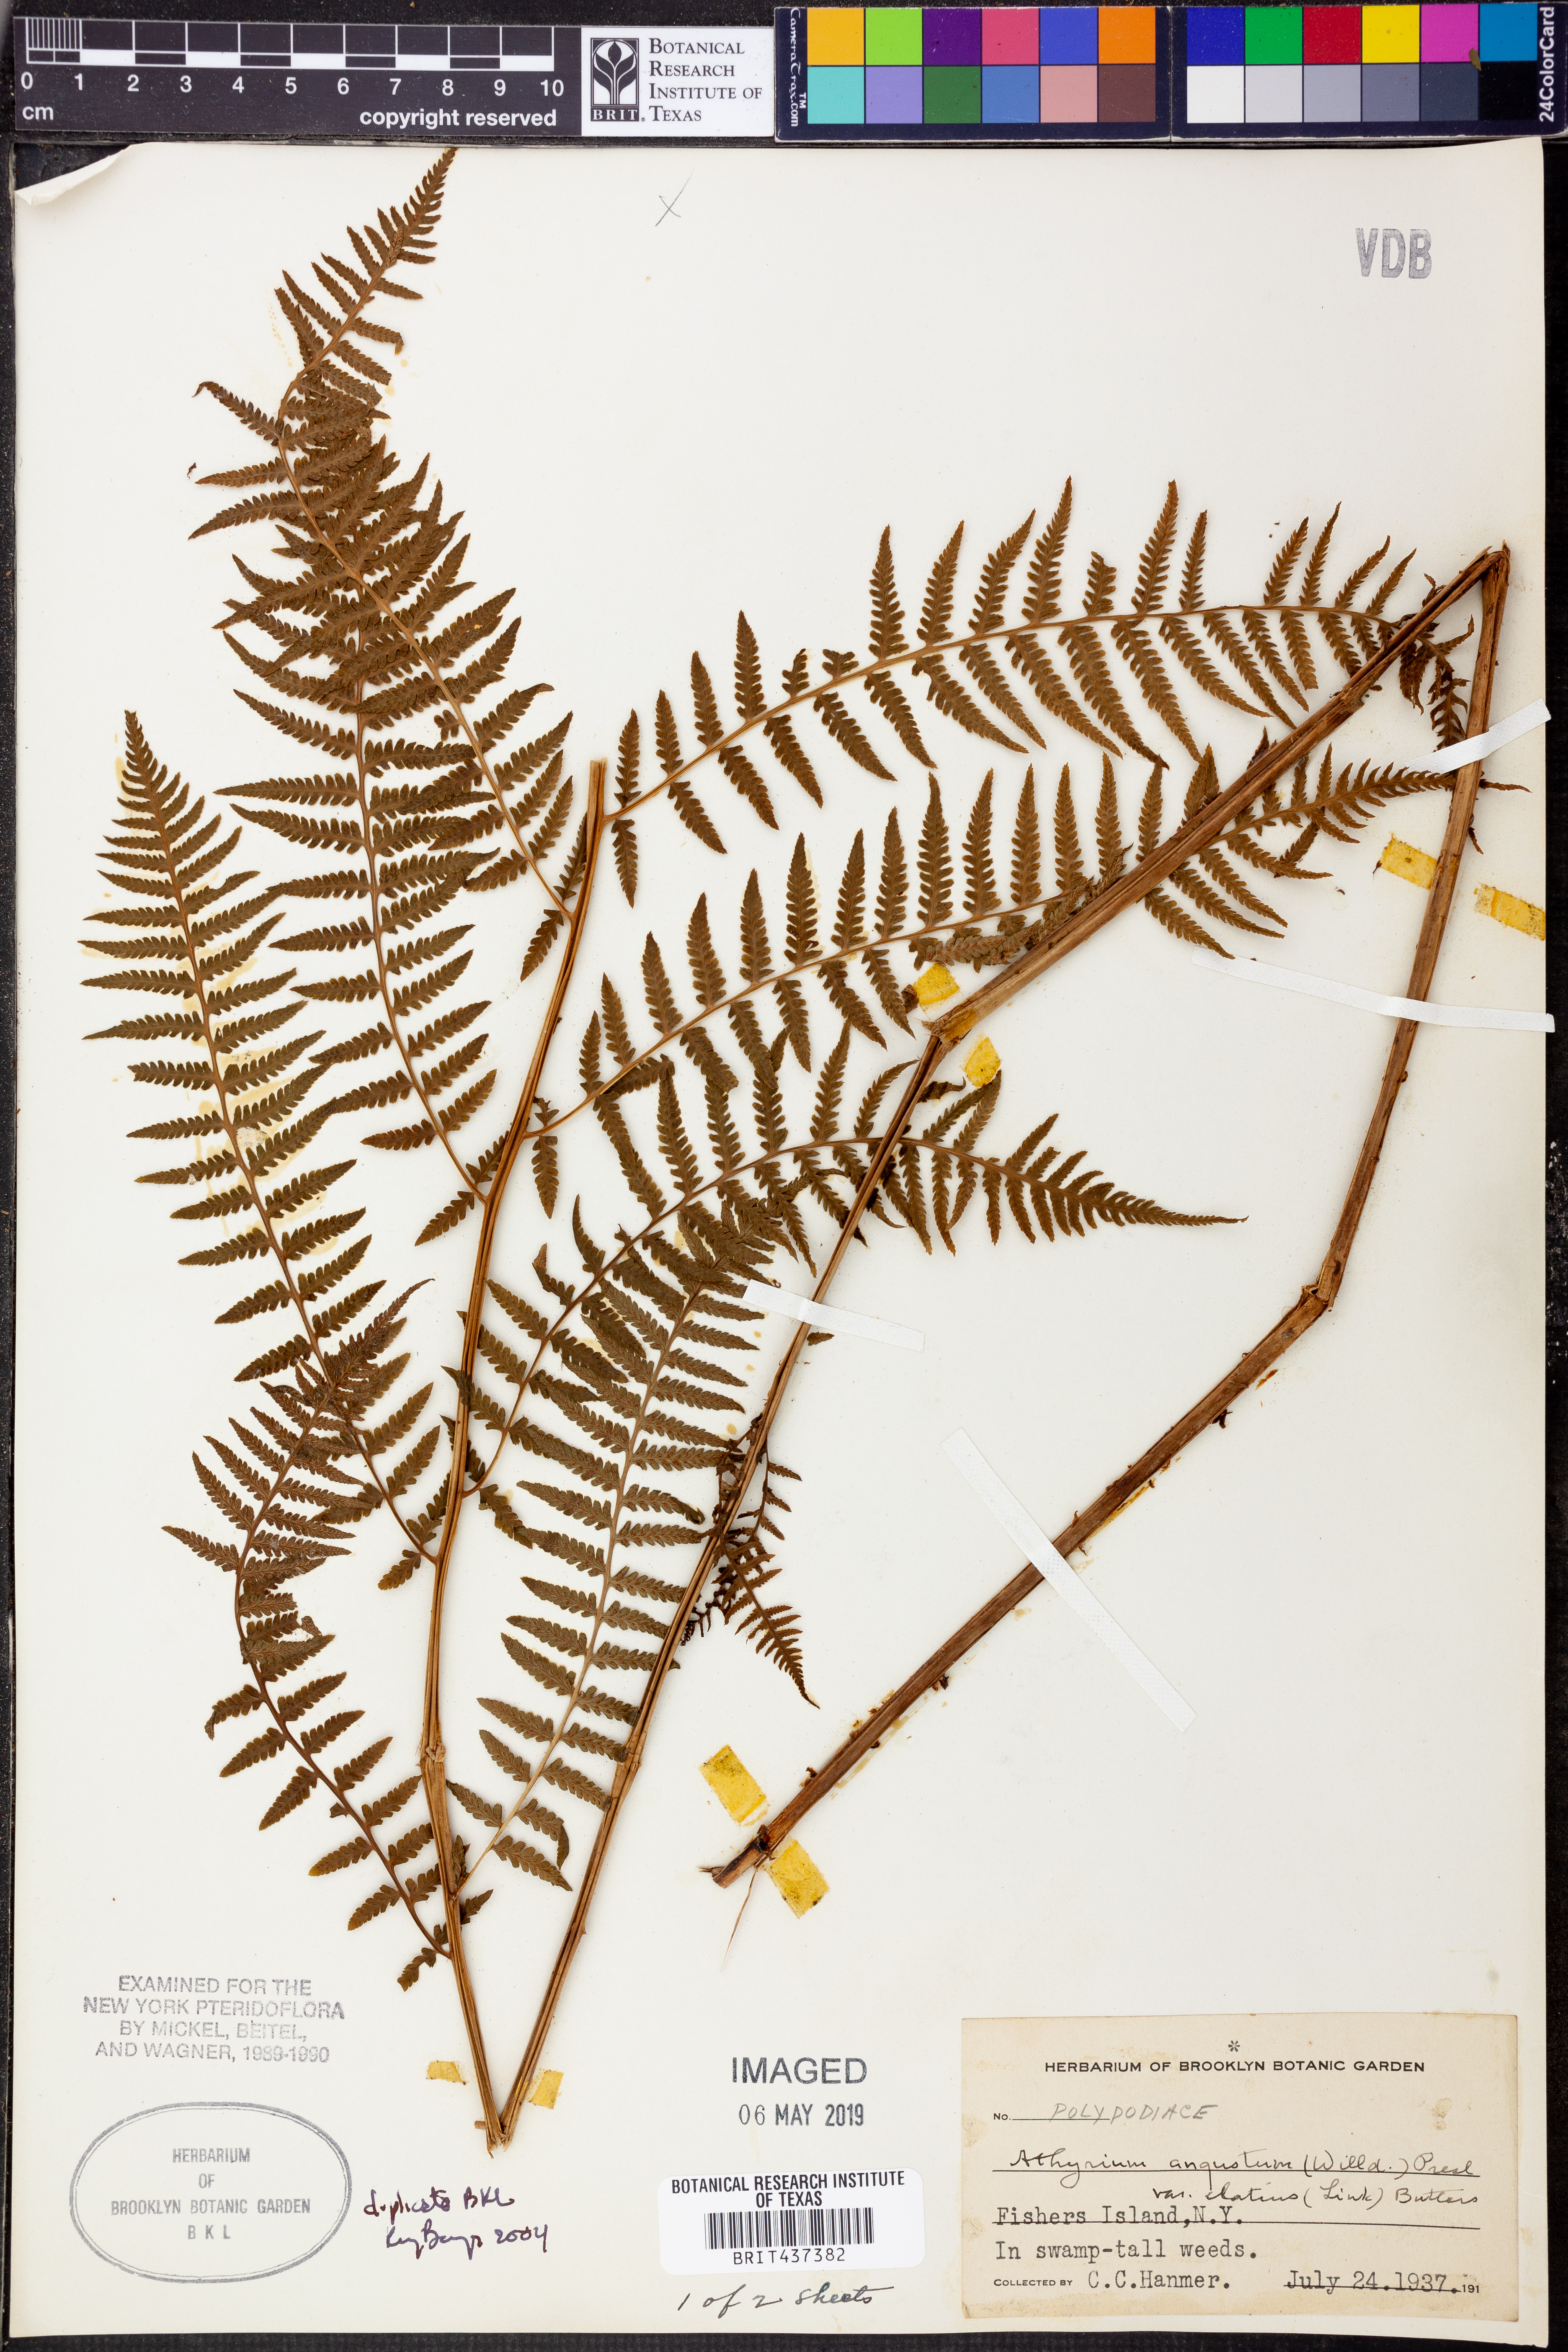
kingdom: Plantae
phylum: Tracheophyta
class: Polypodiopsida
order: Polypodiales
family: Athyriaceae
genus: Athyrium
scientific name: Athyrium cyclosorum
